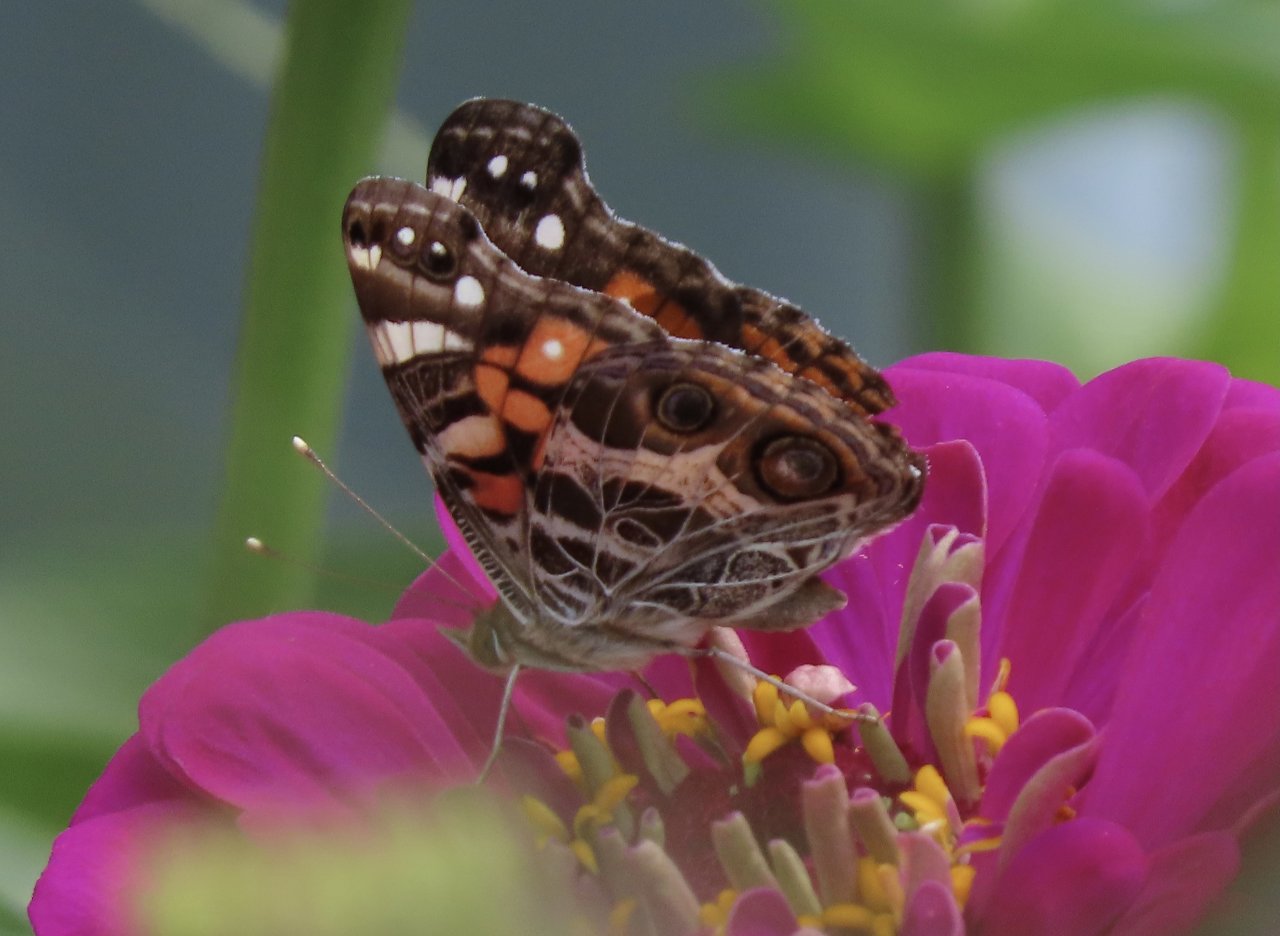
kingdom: Animalia
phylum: Arthropoda
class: Insecta
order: Lepidoptera
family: Nymphalidae
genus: Vanessa
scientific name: Vanessa virginiensis
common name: American Lady
